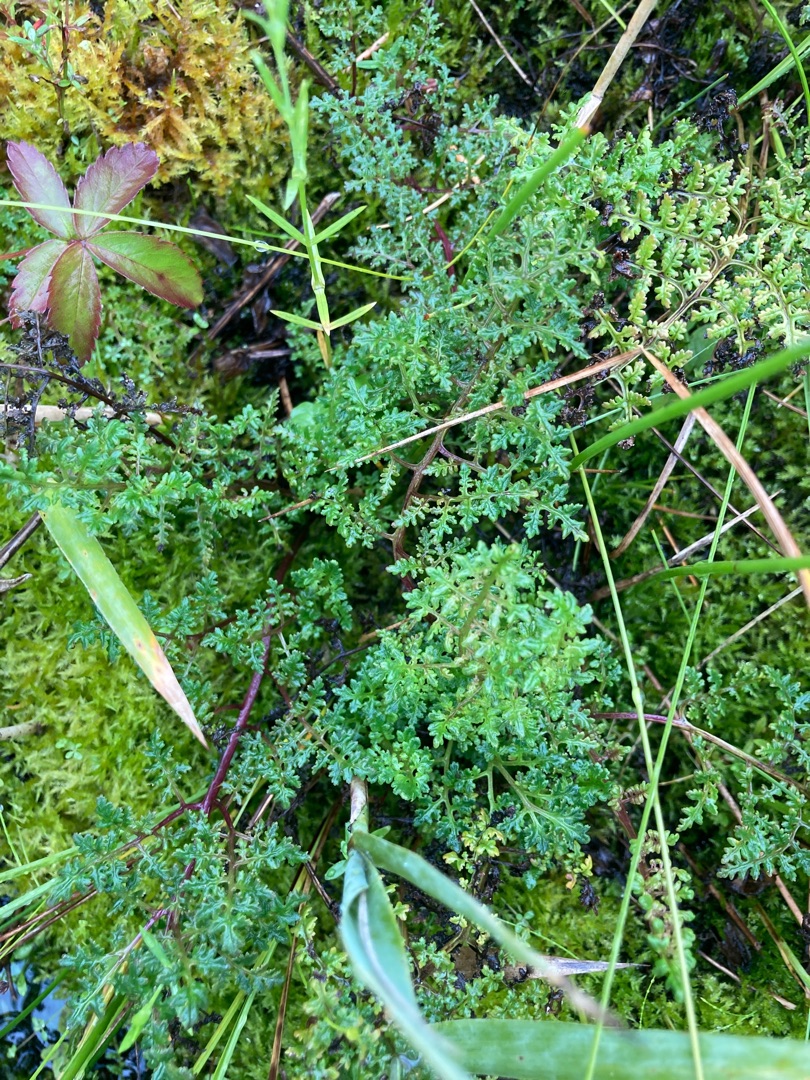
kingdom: Plantae
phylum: Tracheophyta
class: Magnoliopsida
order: Lamiales
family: Orobanchaceae
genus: Pedicularis
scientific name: Pedicularis palustris
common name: Eng-troldurt
